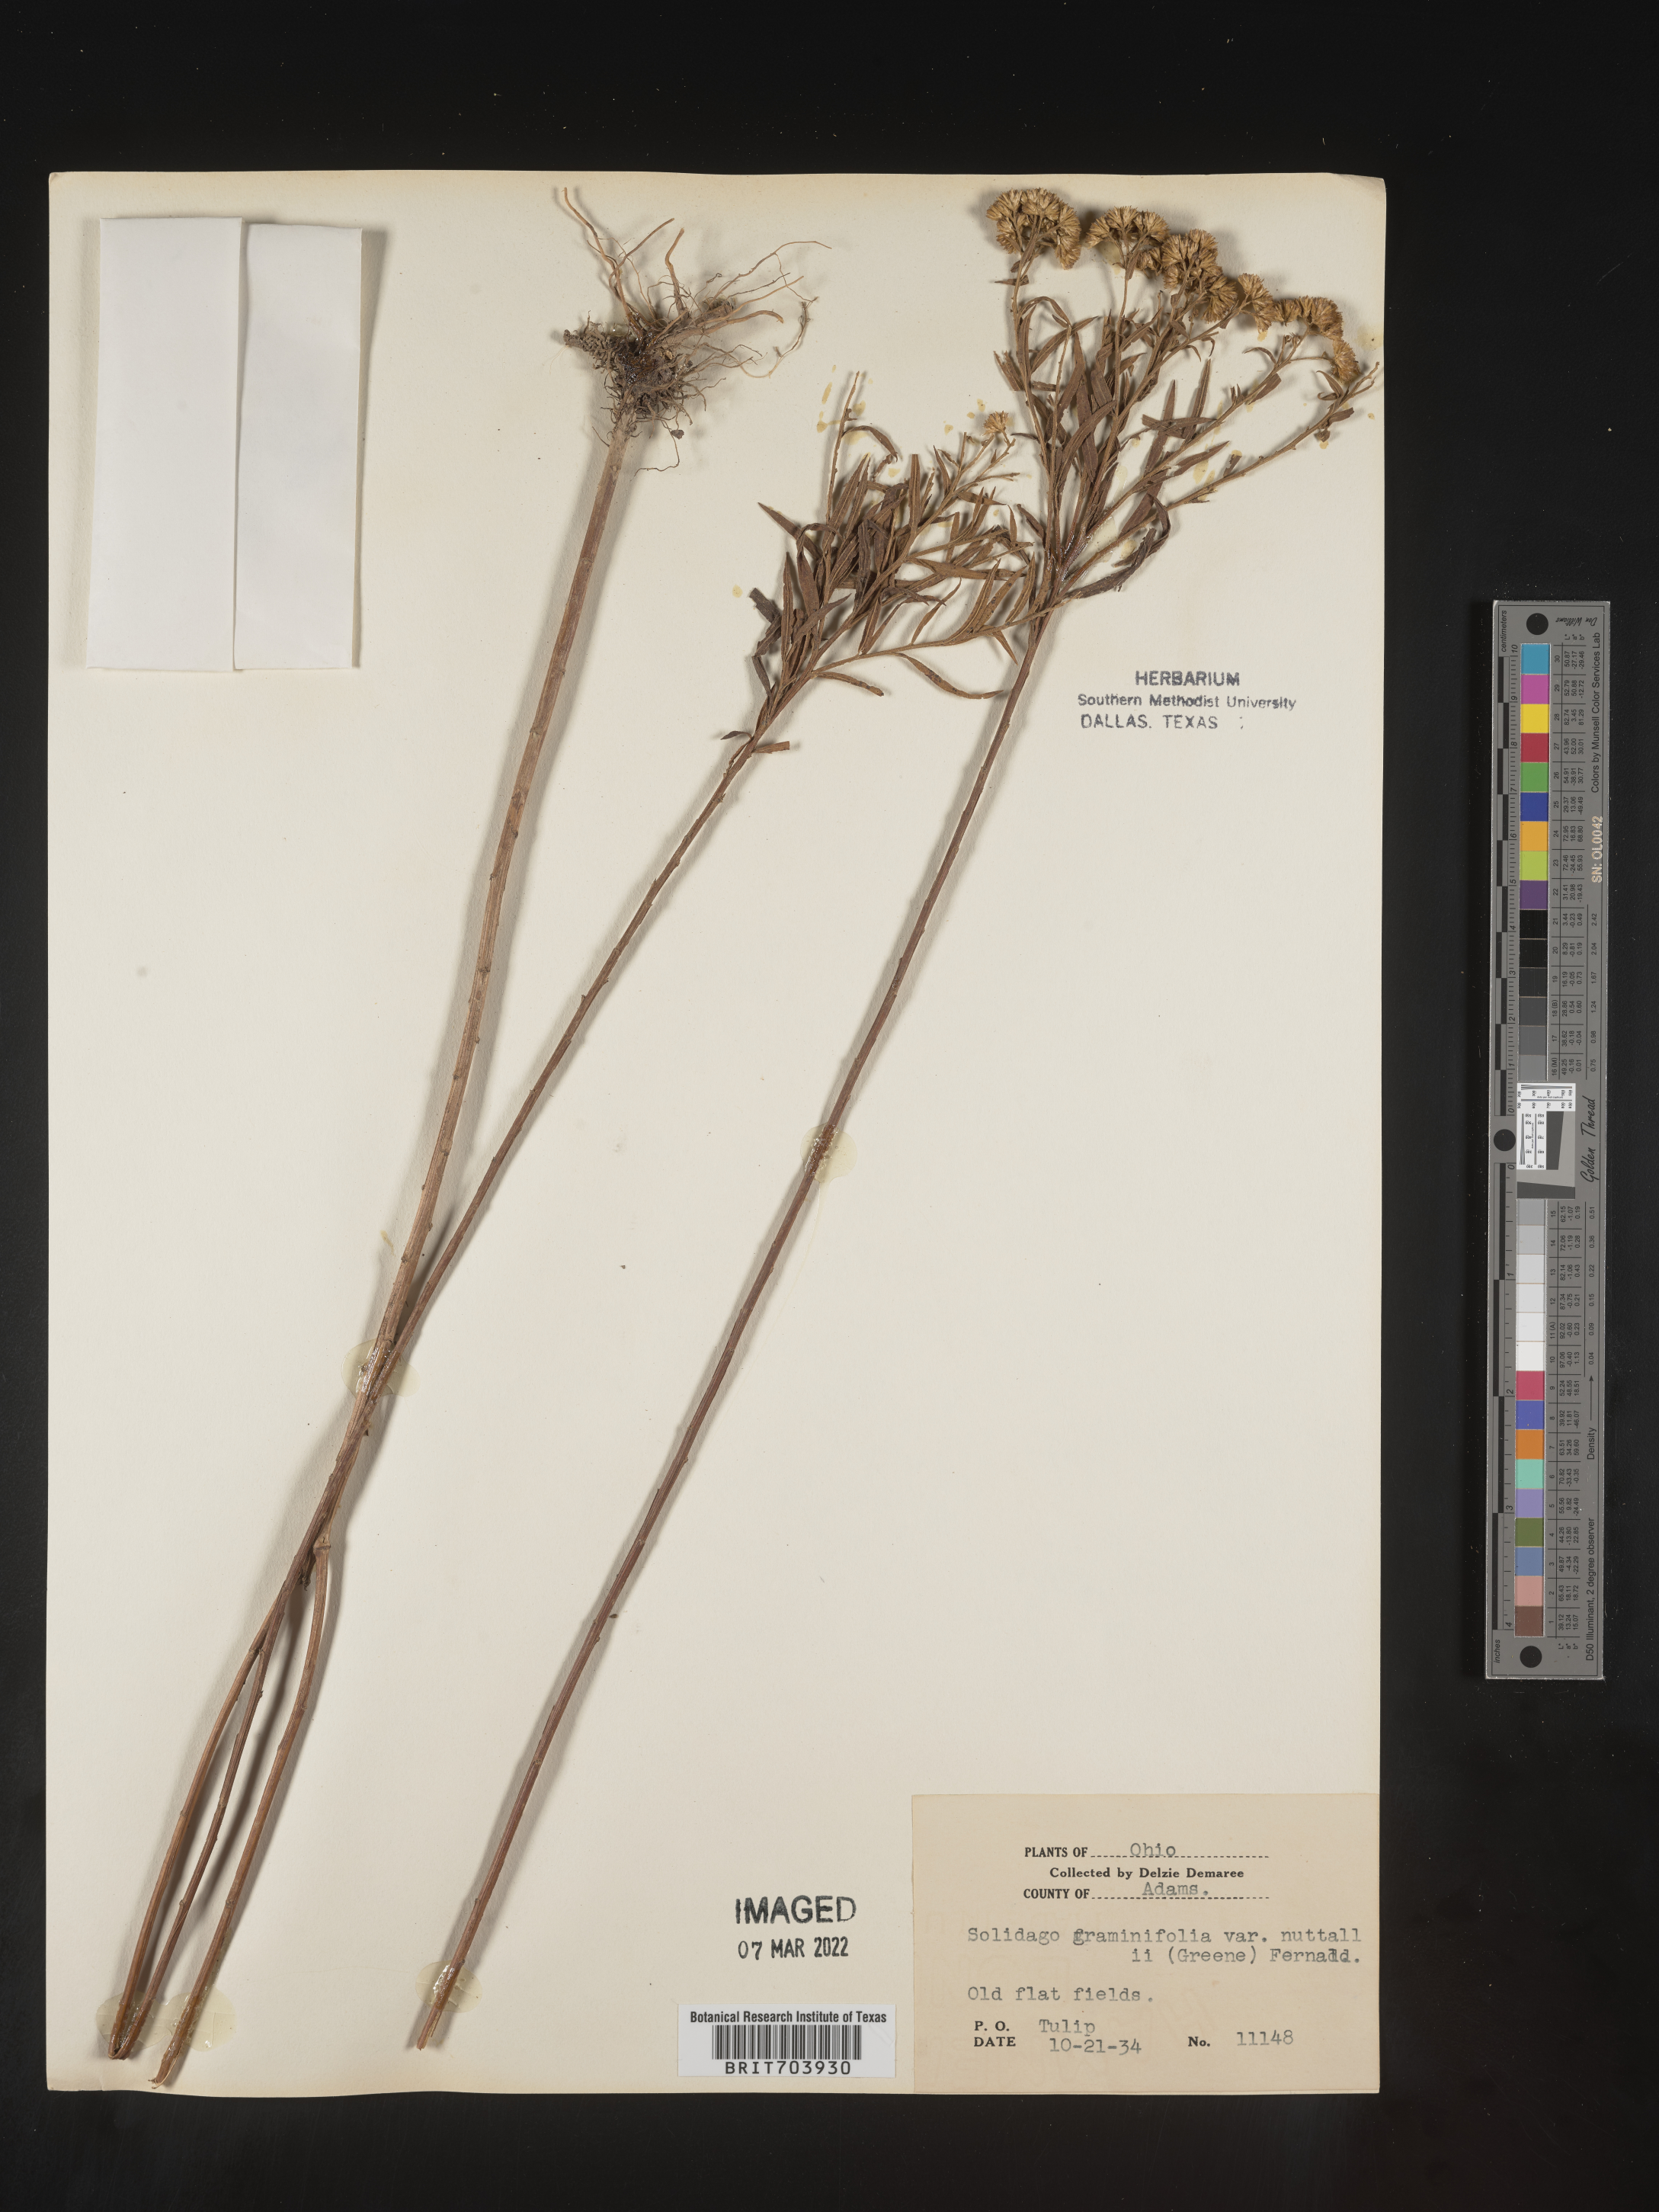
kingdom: Plantae
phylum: Tracheophyta
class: Magnoliopsida
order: Asterales
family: Asteraceae
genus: Euthamia
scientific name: Euthamia graminifolia
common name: Common goldentop
